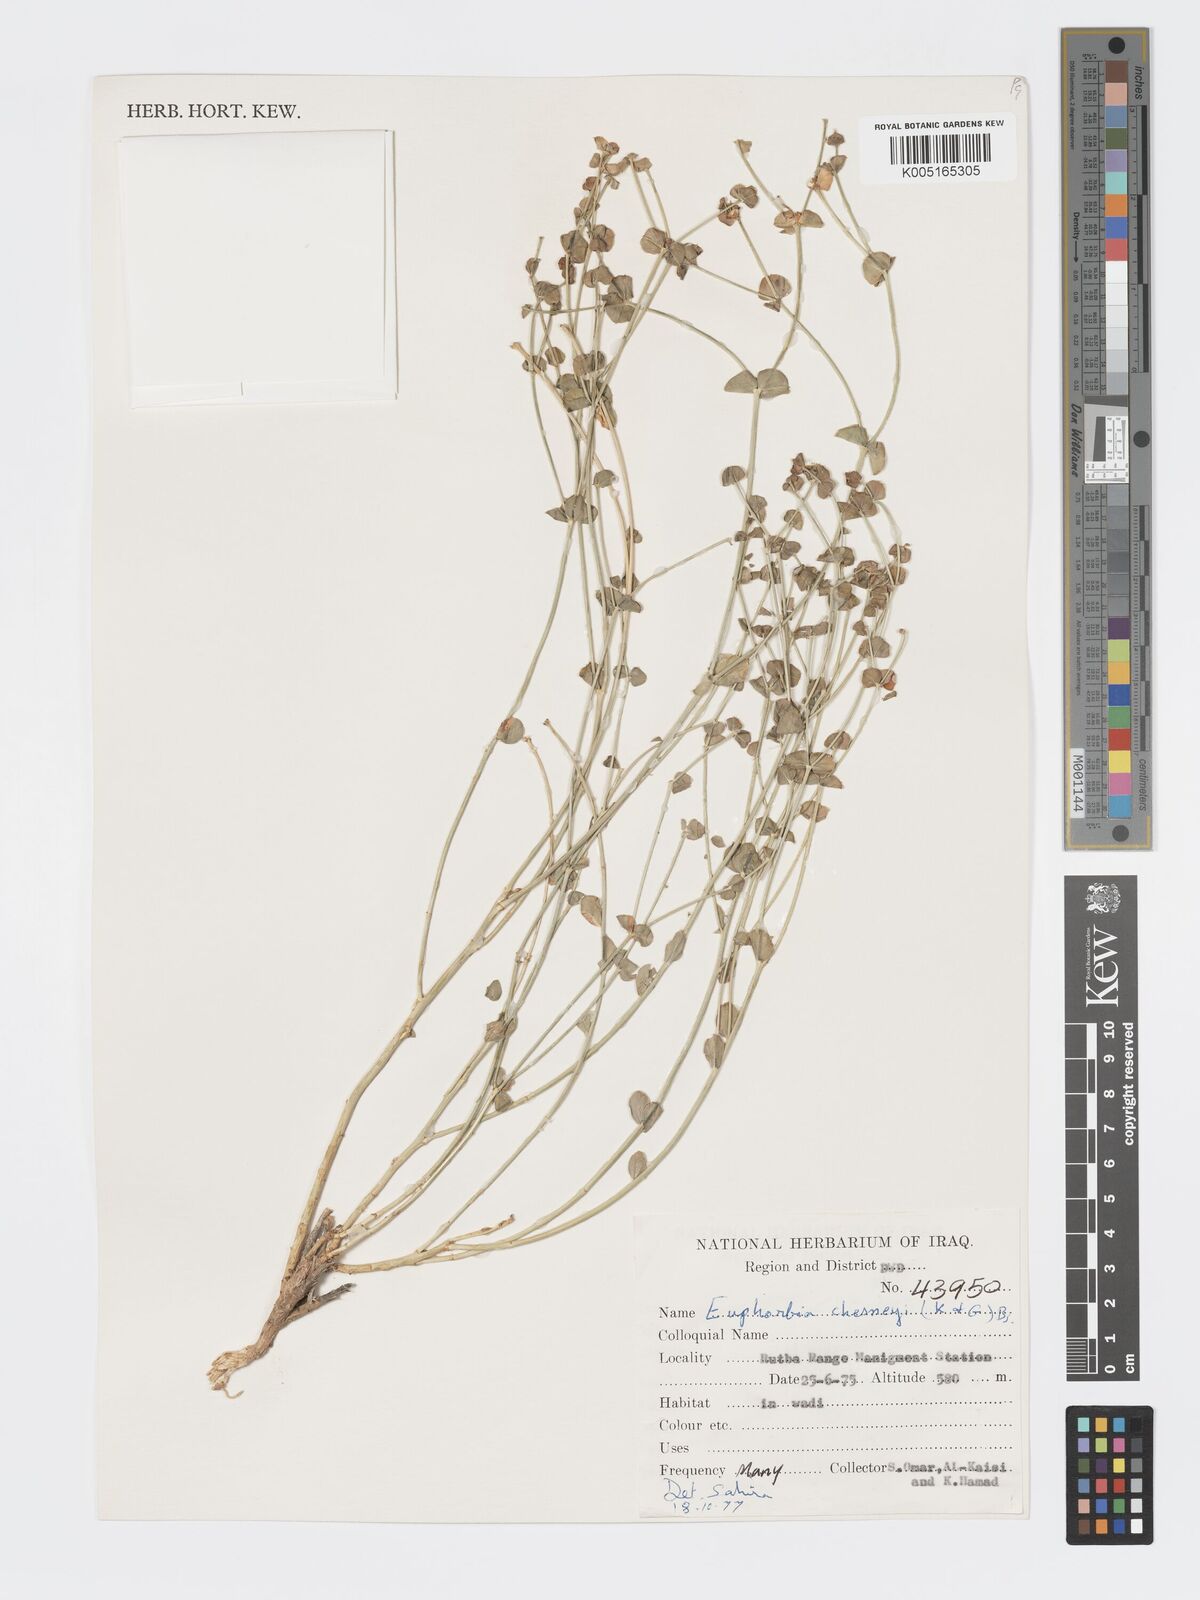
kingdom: Plantae
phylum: Tracheophyta
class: Magnoliopsida
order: Malpighiales
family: Euphorbiaceae
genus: Euphorbia
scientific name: Euphorbia cuspidata
